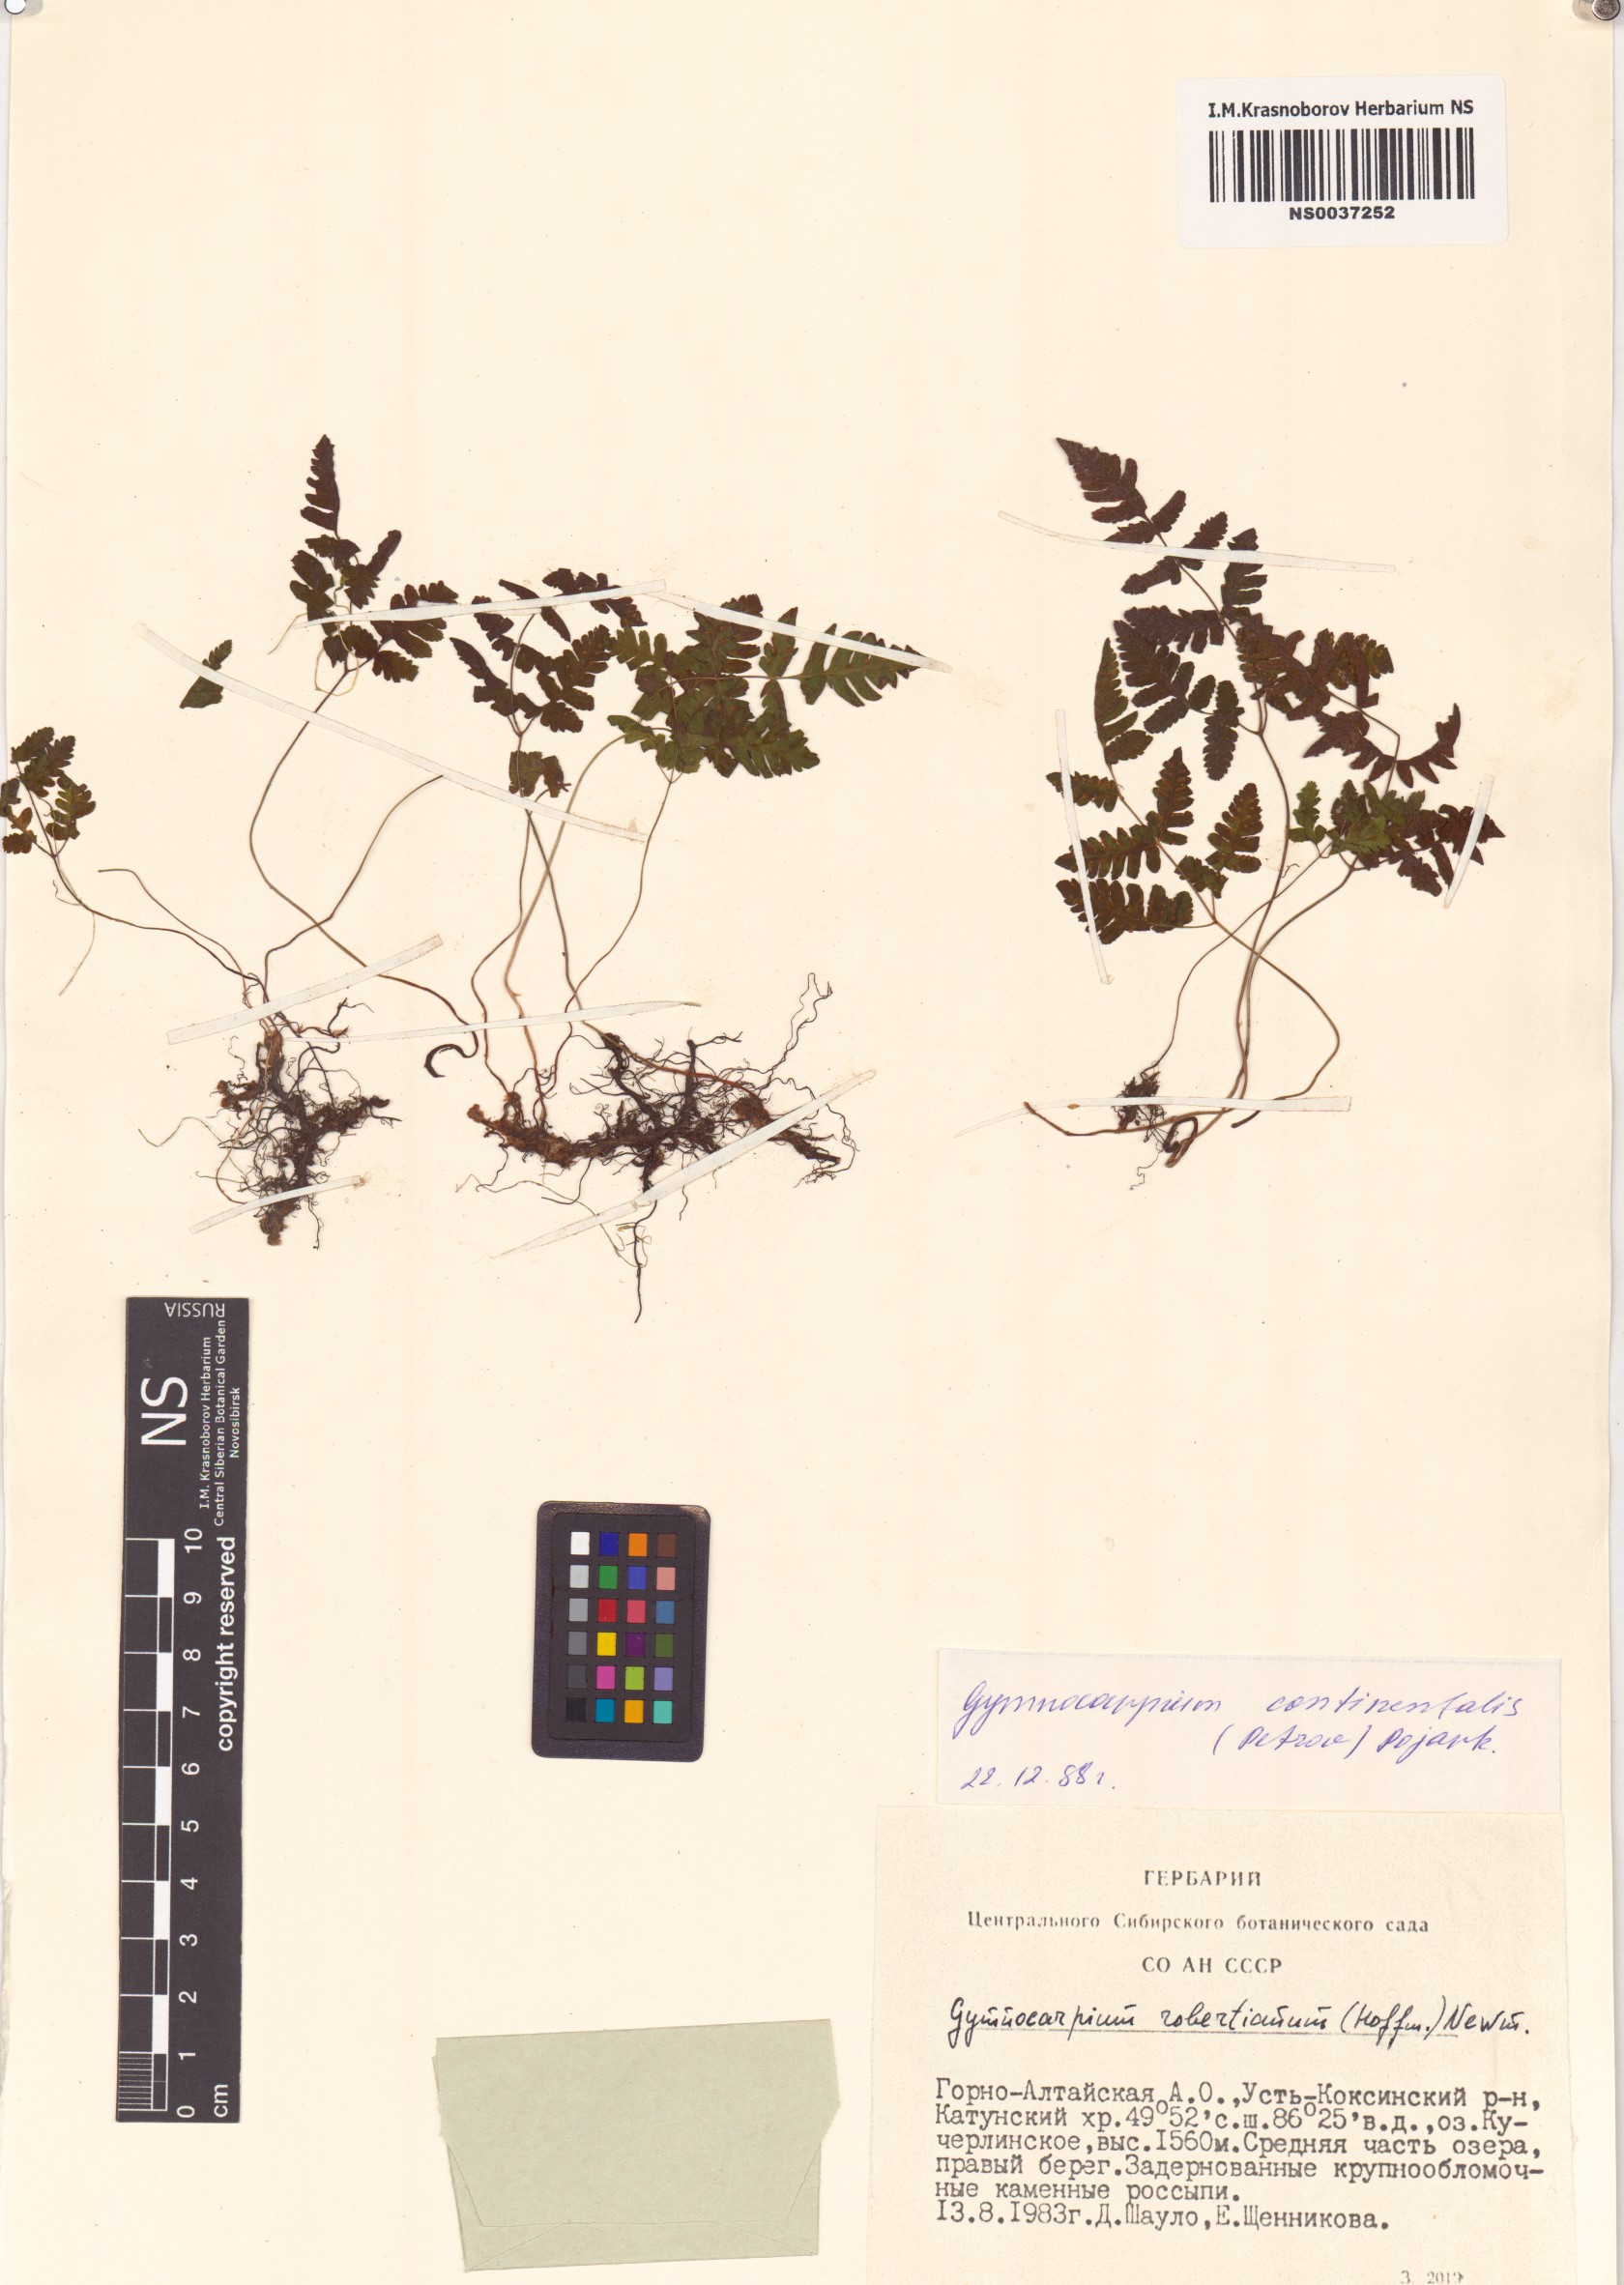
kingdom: Plantae
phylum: Tracheophyta
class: Polypodiopsida
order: Polypodiales
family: Cystopteridaceae
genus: Gymnocarpium
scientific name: Gymnocarpium continentale
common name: Asian oak fern
